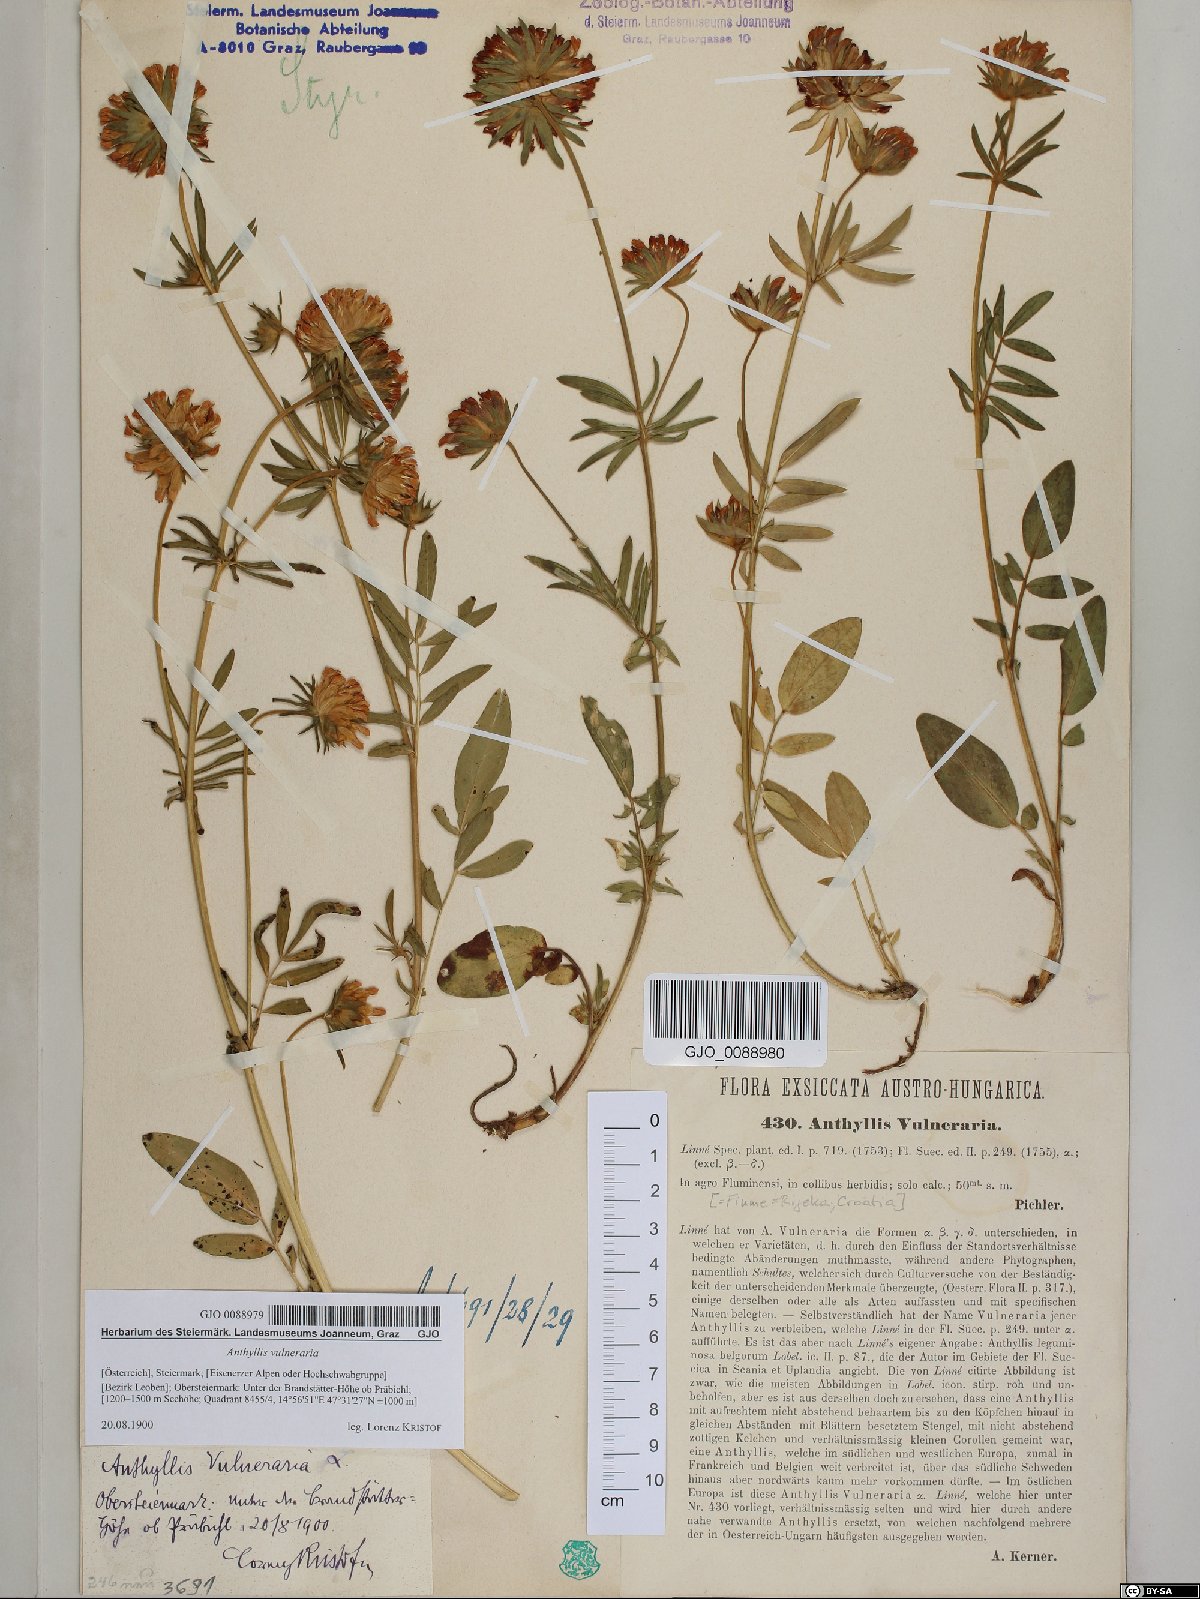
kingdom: Plantae
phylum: Tracheophyta
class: Magnoliopsida
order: Fabales
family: Fabaceae
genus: Anthyllis
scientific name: Anthyllis vulneraria
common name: Kidney vetch
